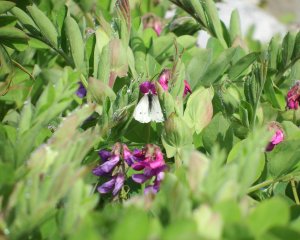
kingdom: Animalia
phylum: Arthropoda
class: Insecta
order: Lepidoptera
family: Pieridae
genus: Pieris
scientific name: Pieris rapae
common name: Cabbage White
